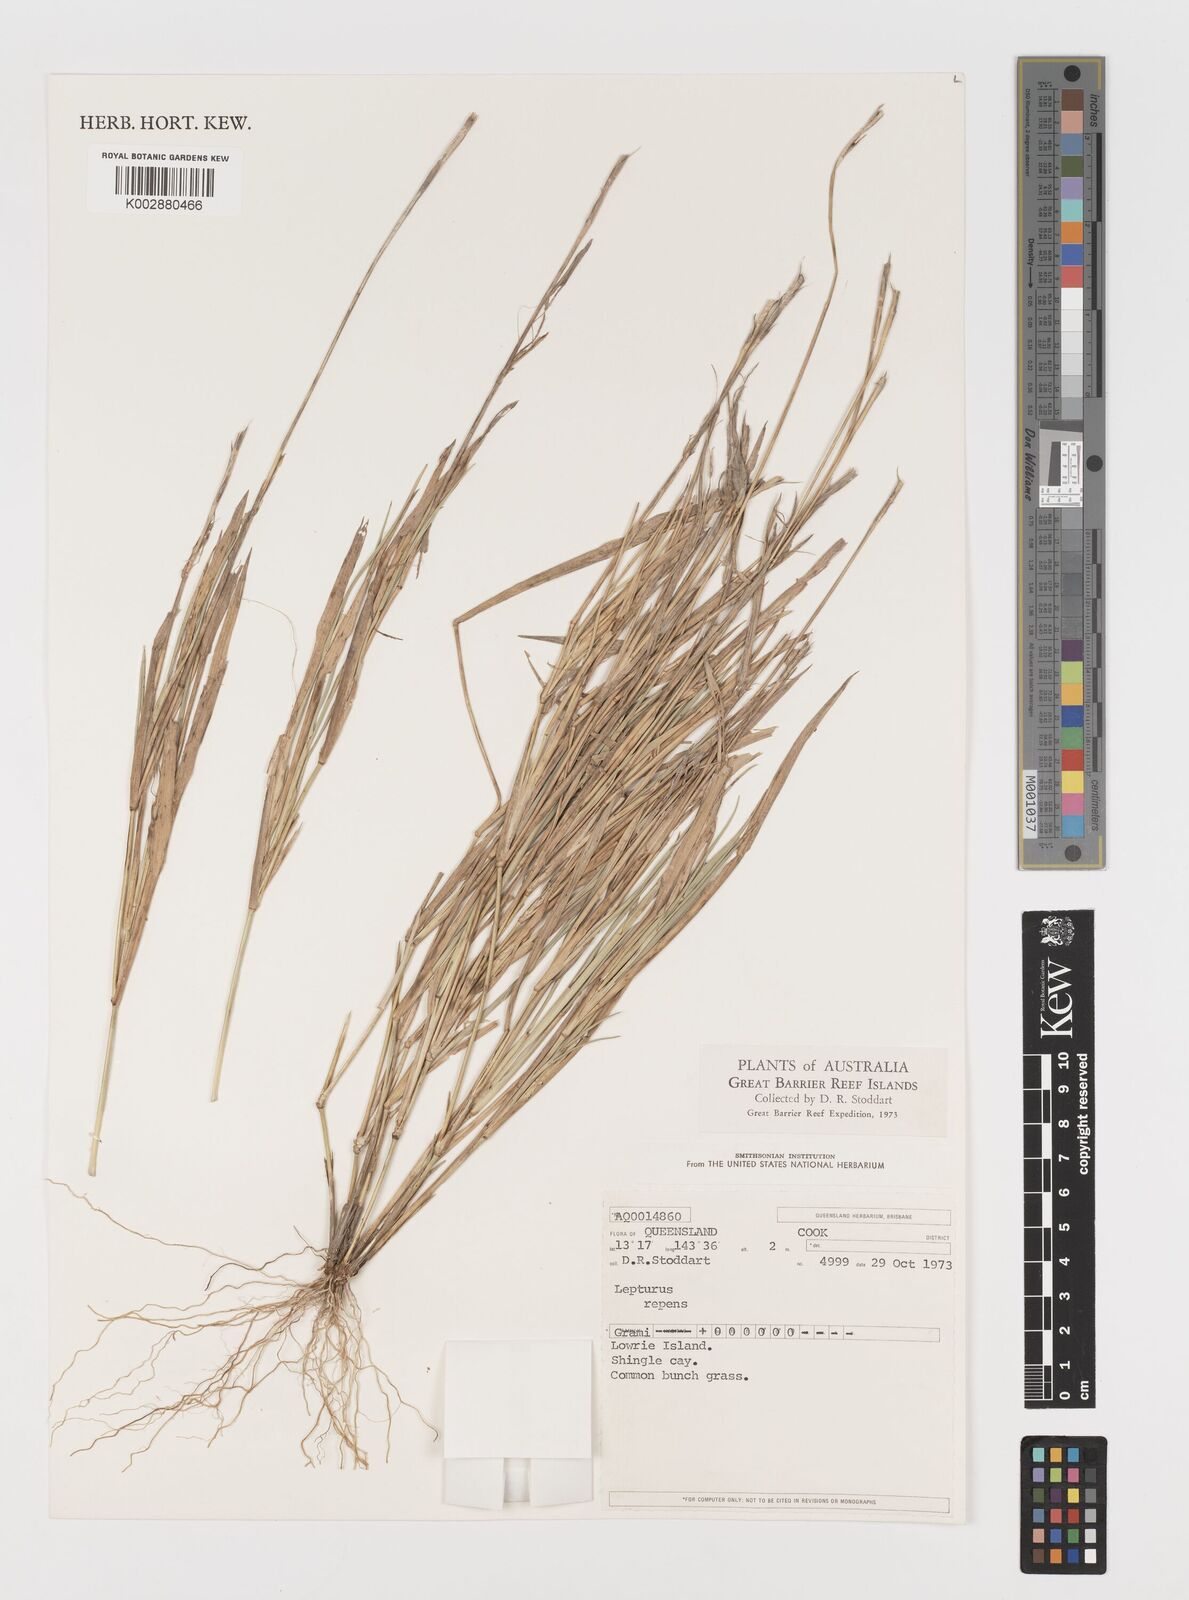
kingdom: Plantae
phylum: Tracheophyta
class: Liliopsida
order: Poales
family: Poaceae
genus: Lepturus
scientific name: Lepturus repens
